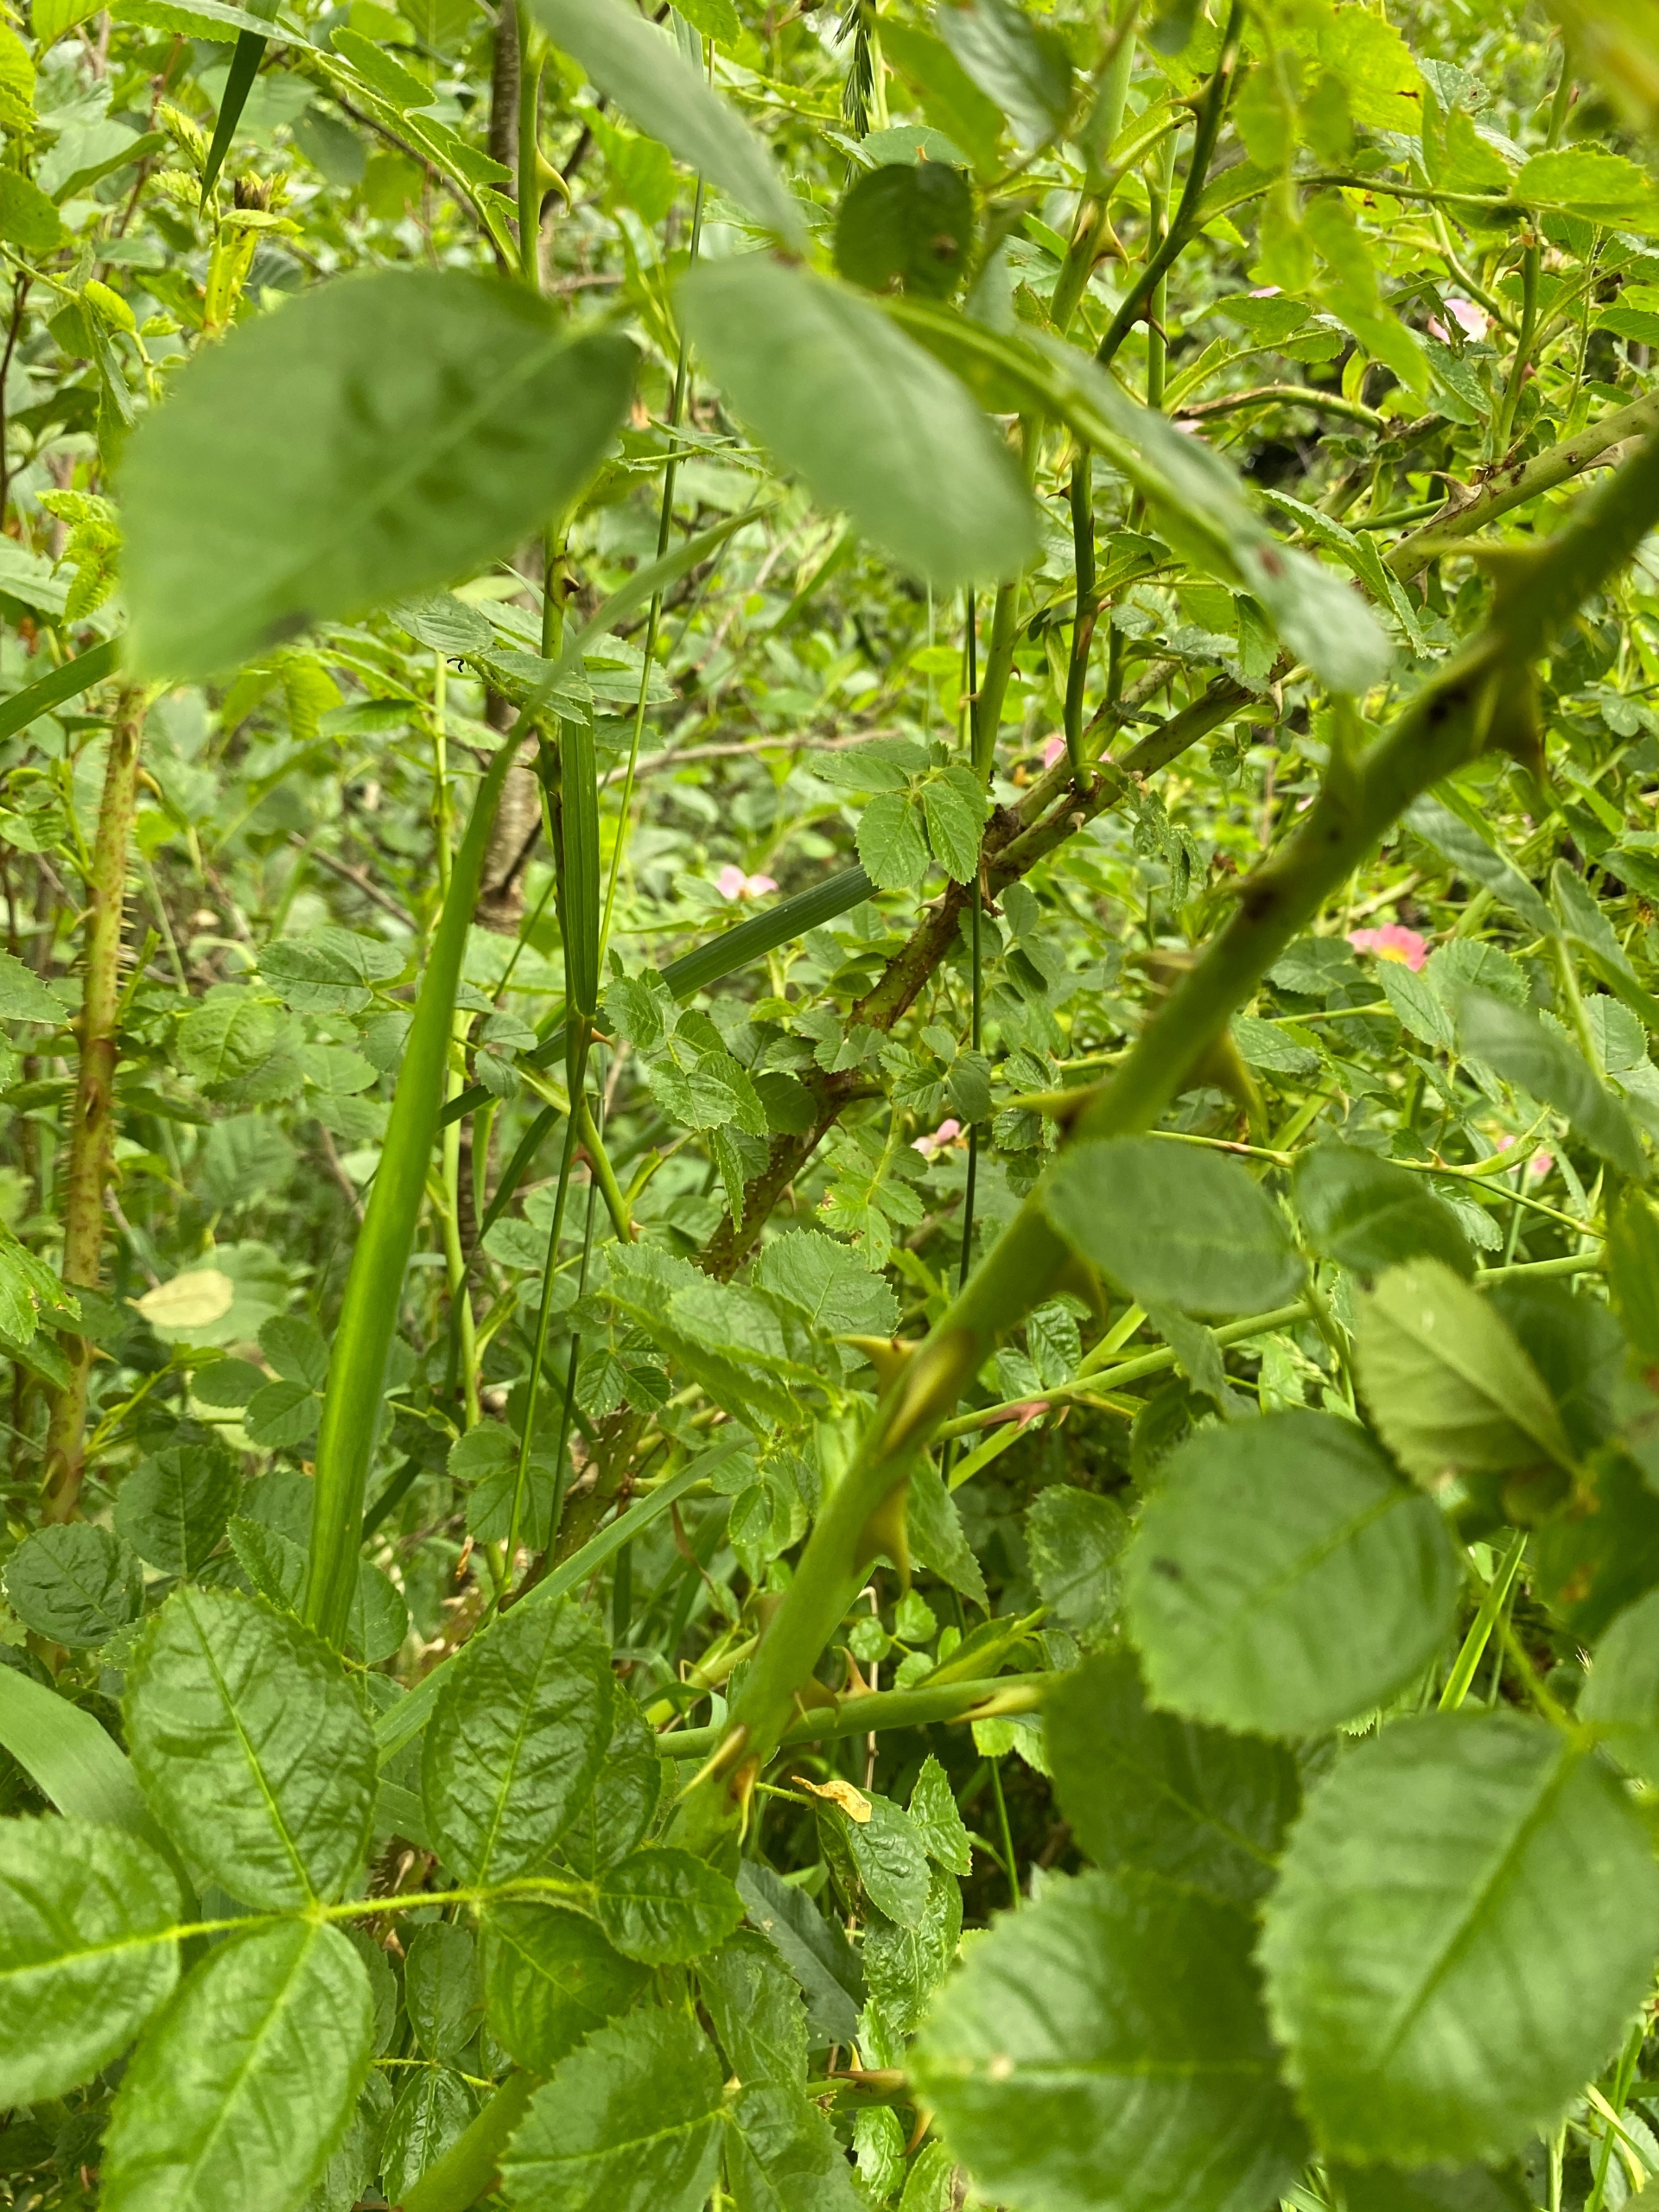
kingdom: Plantae
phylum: Tracheophyta
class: Magnoliopsida
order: Rosales
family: Rosaceae
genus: Rosa
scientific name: Rosa rubiginosa
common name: Æble-rose
